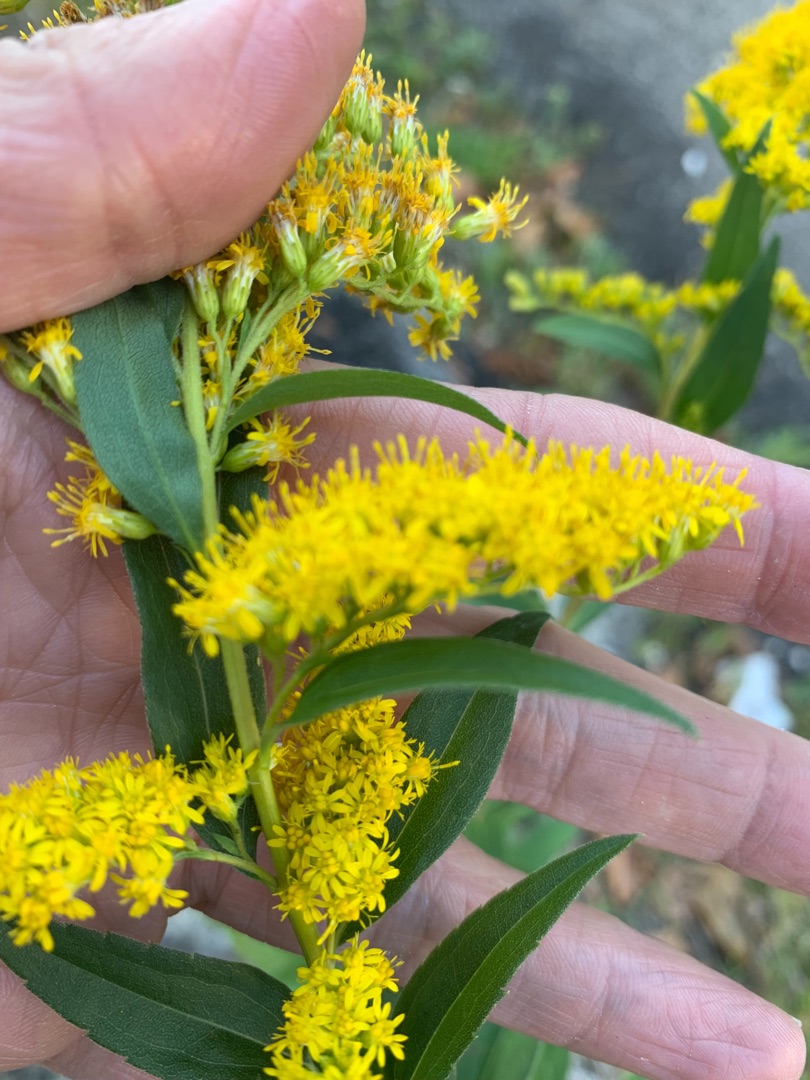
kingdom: Plantae
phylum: Tracheophyta
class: Magnoliopsida
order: Asterales
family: Asteraceae
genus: Solidago
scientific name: Solidago gigantea
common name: Sildig gyldenris
